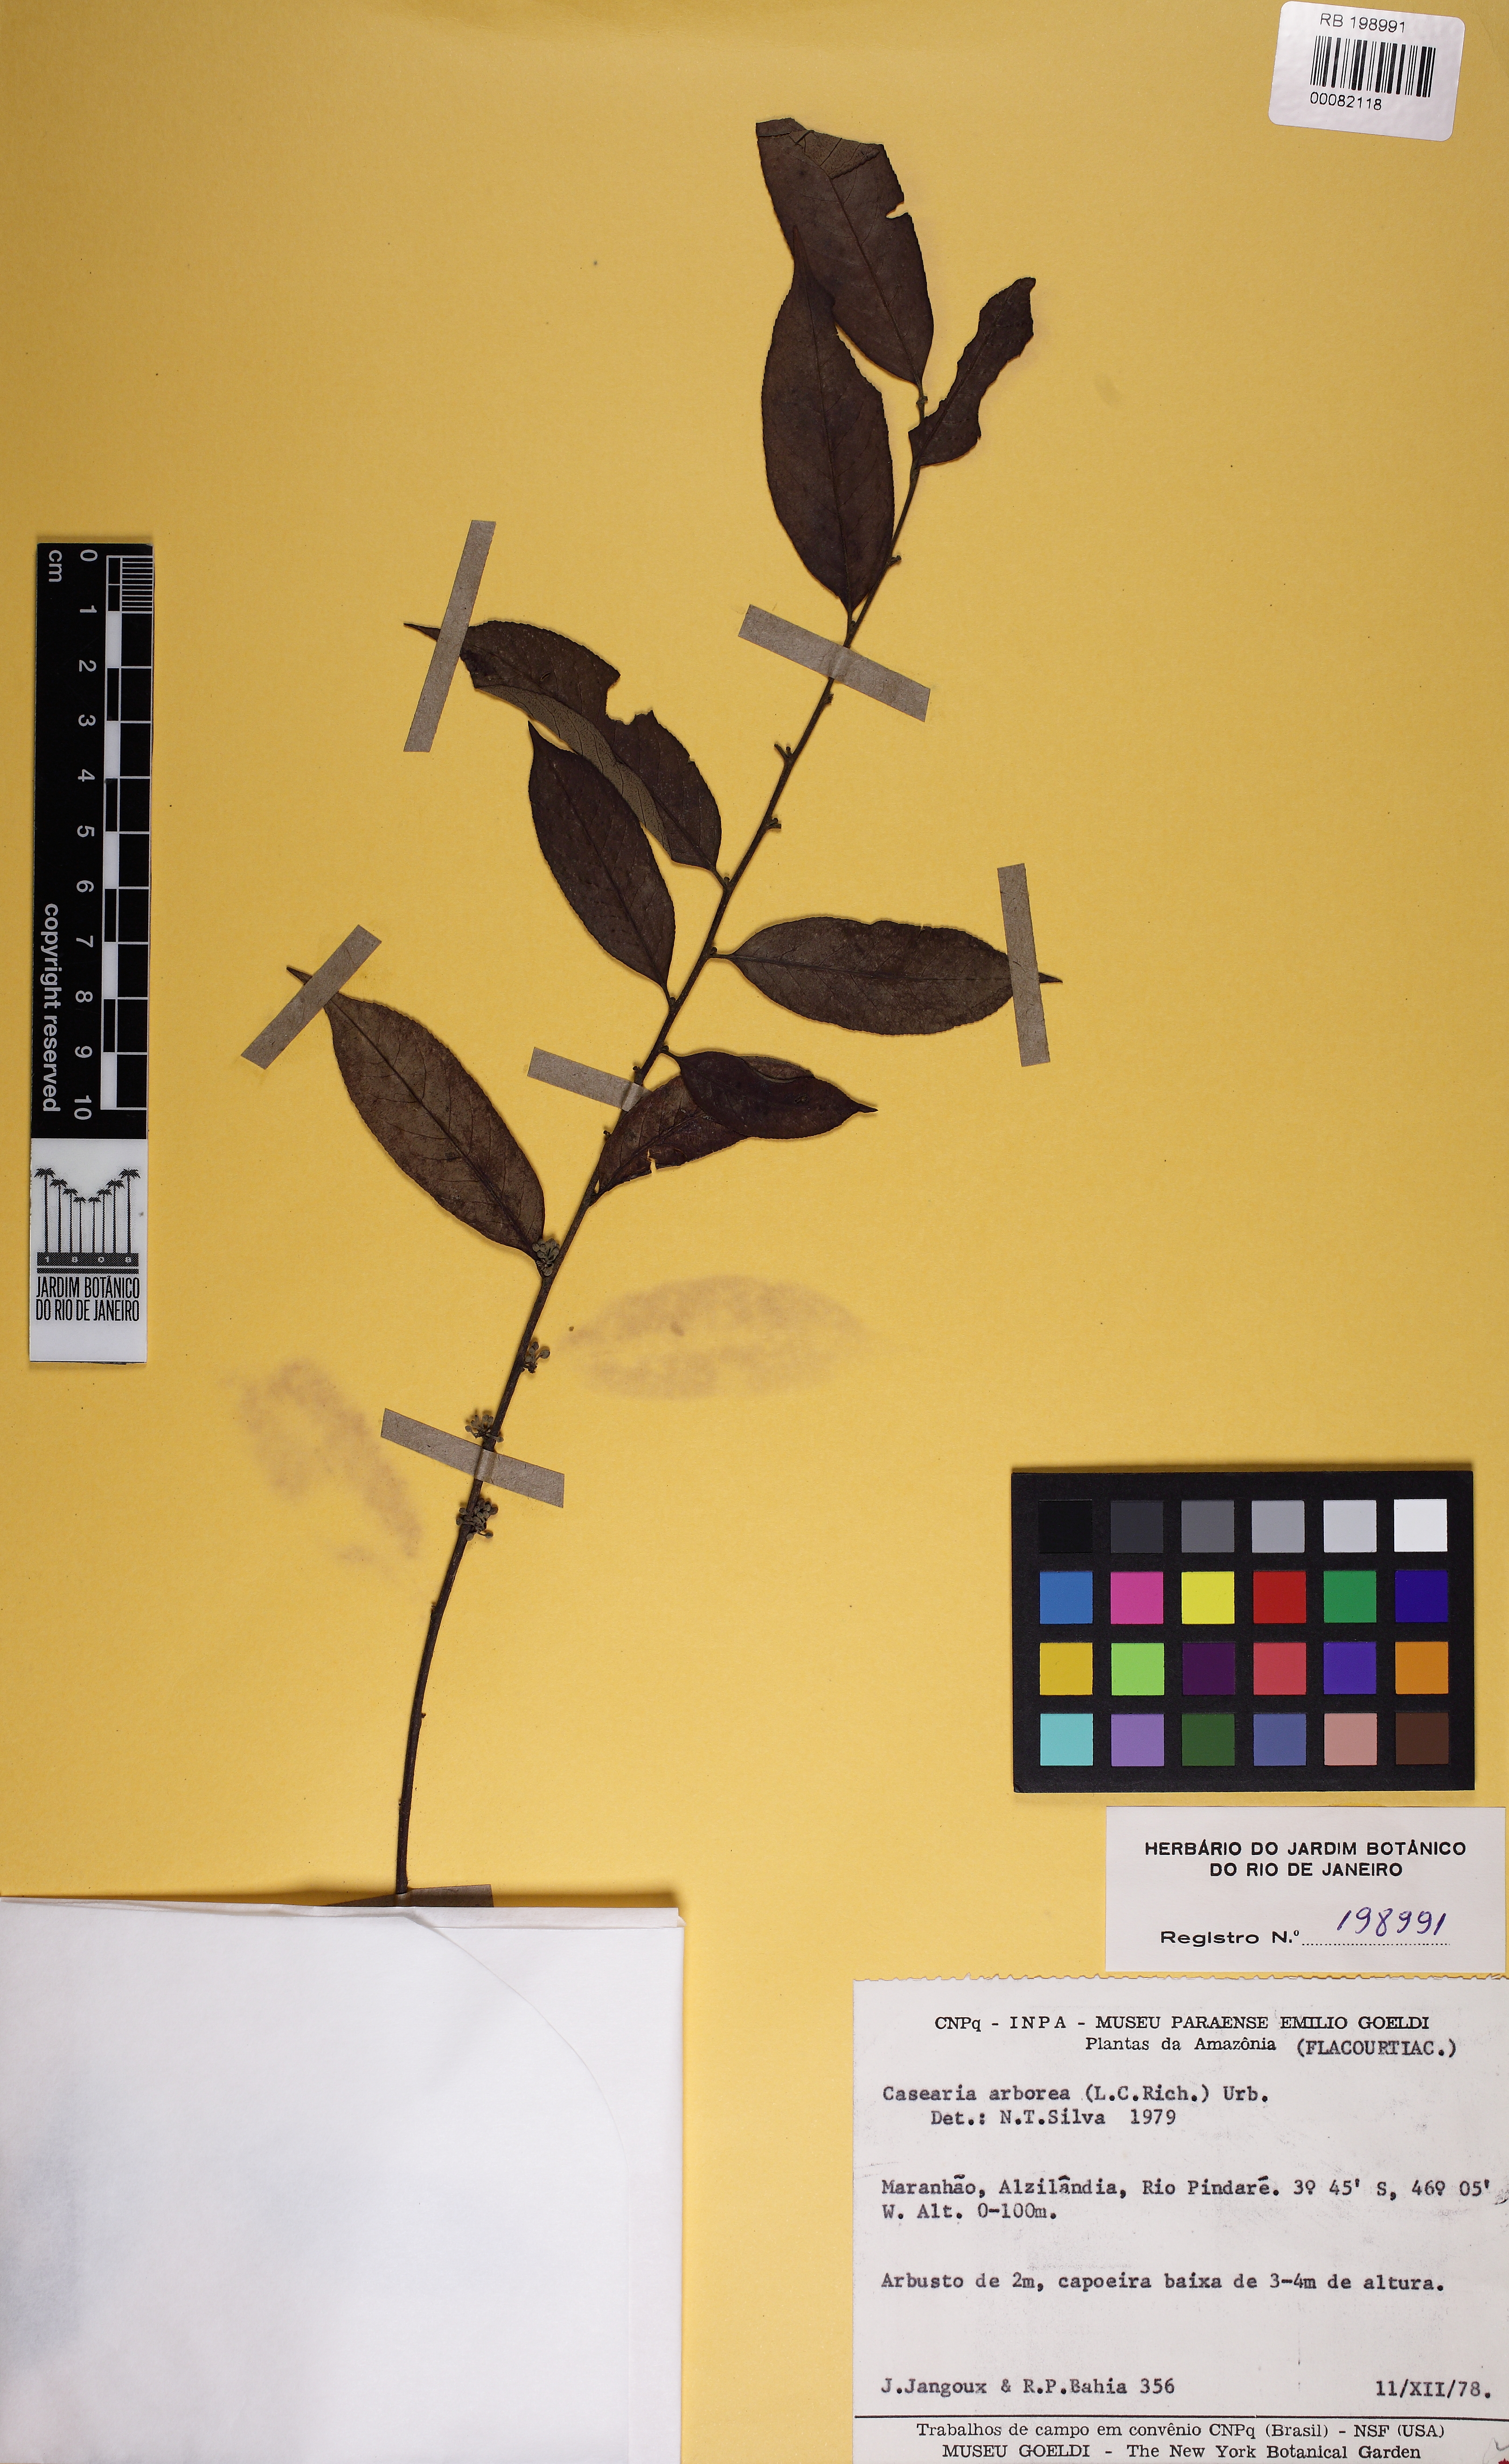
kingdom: Plantae
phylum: Tracheophyta
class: Magnoliopsida
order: Malpighiales
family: Salicaceae
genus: Casearia
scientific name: Casearia
